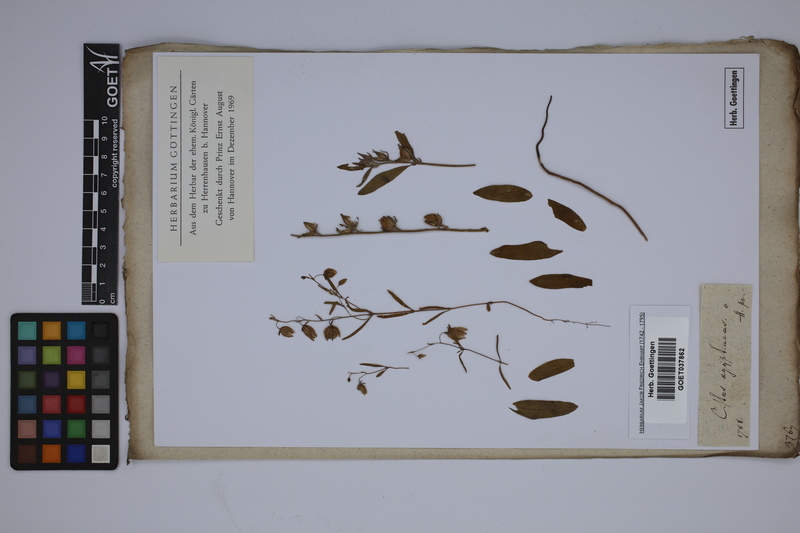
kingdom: Plantae
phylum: Tracheophyta
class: Magnoliopsida
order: Malvales
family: Cistaceae
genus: Helianthemum
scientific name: Helianthemum aegyptiacum
